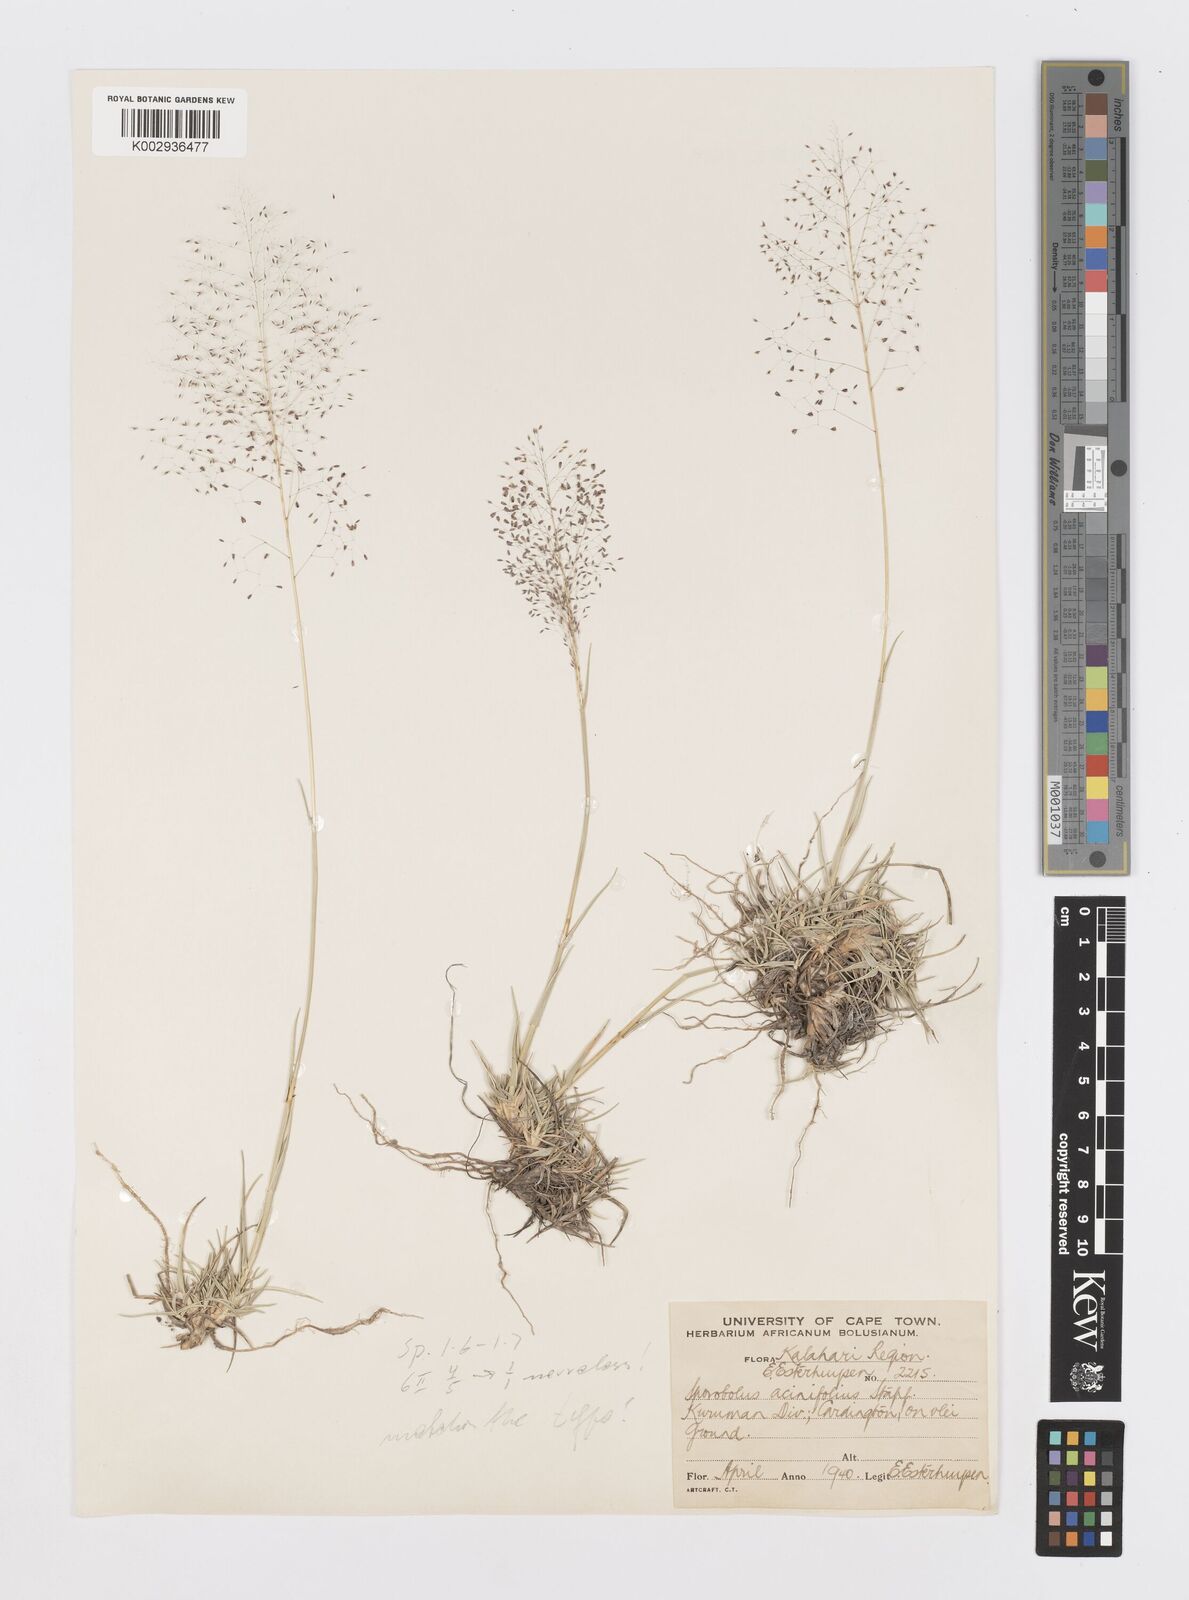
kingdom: Plantae
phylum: Tracheophyta
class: Liliopsida
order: Poales
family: Poaceae
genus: Sporobolus
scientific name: Sporobolus acinifolius
